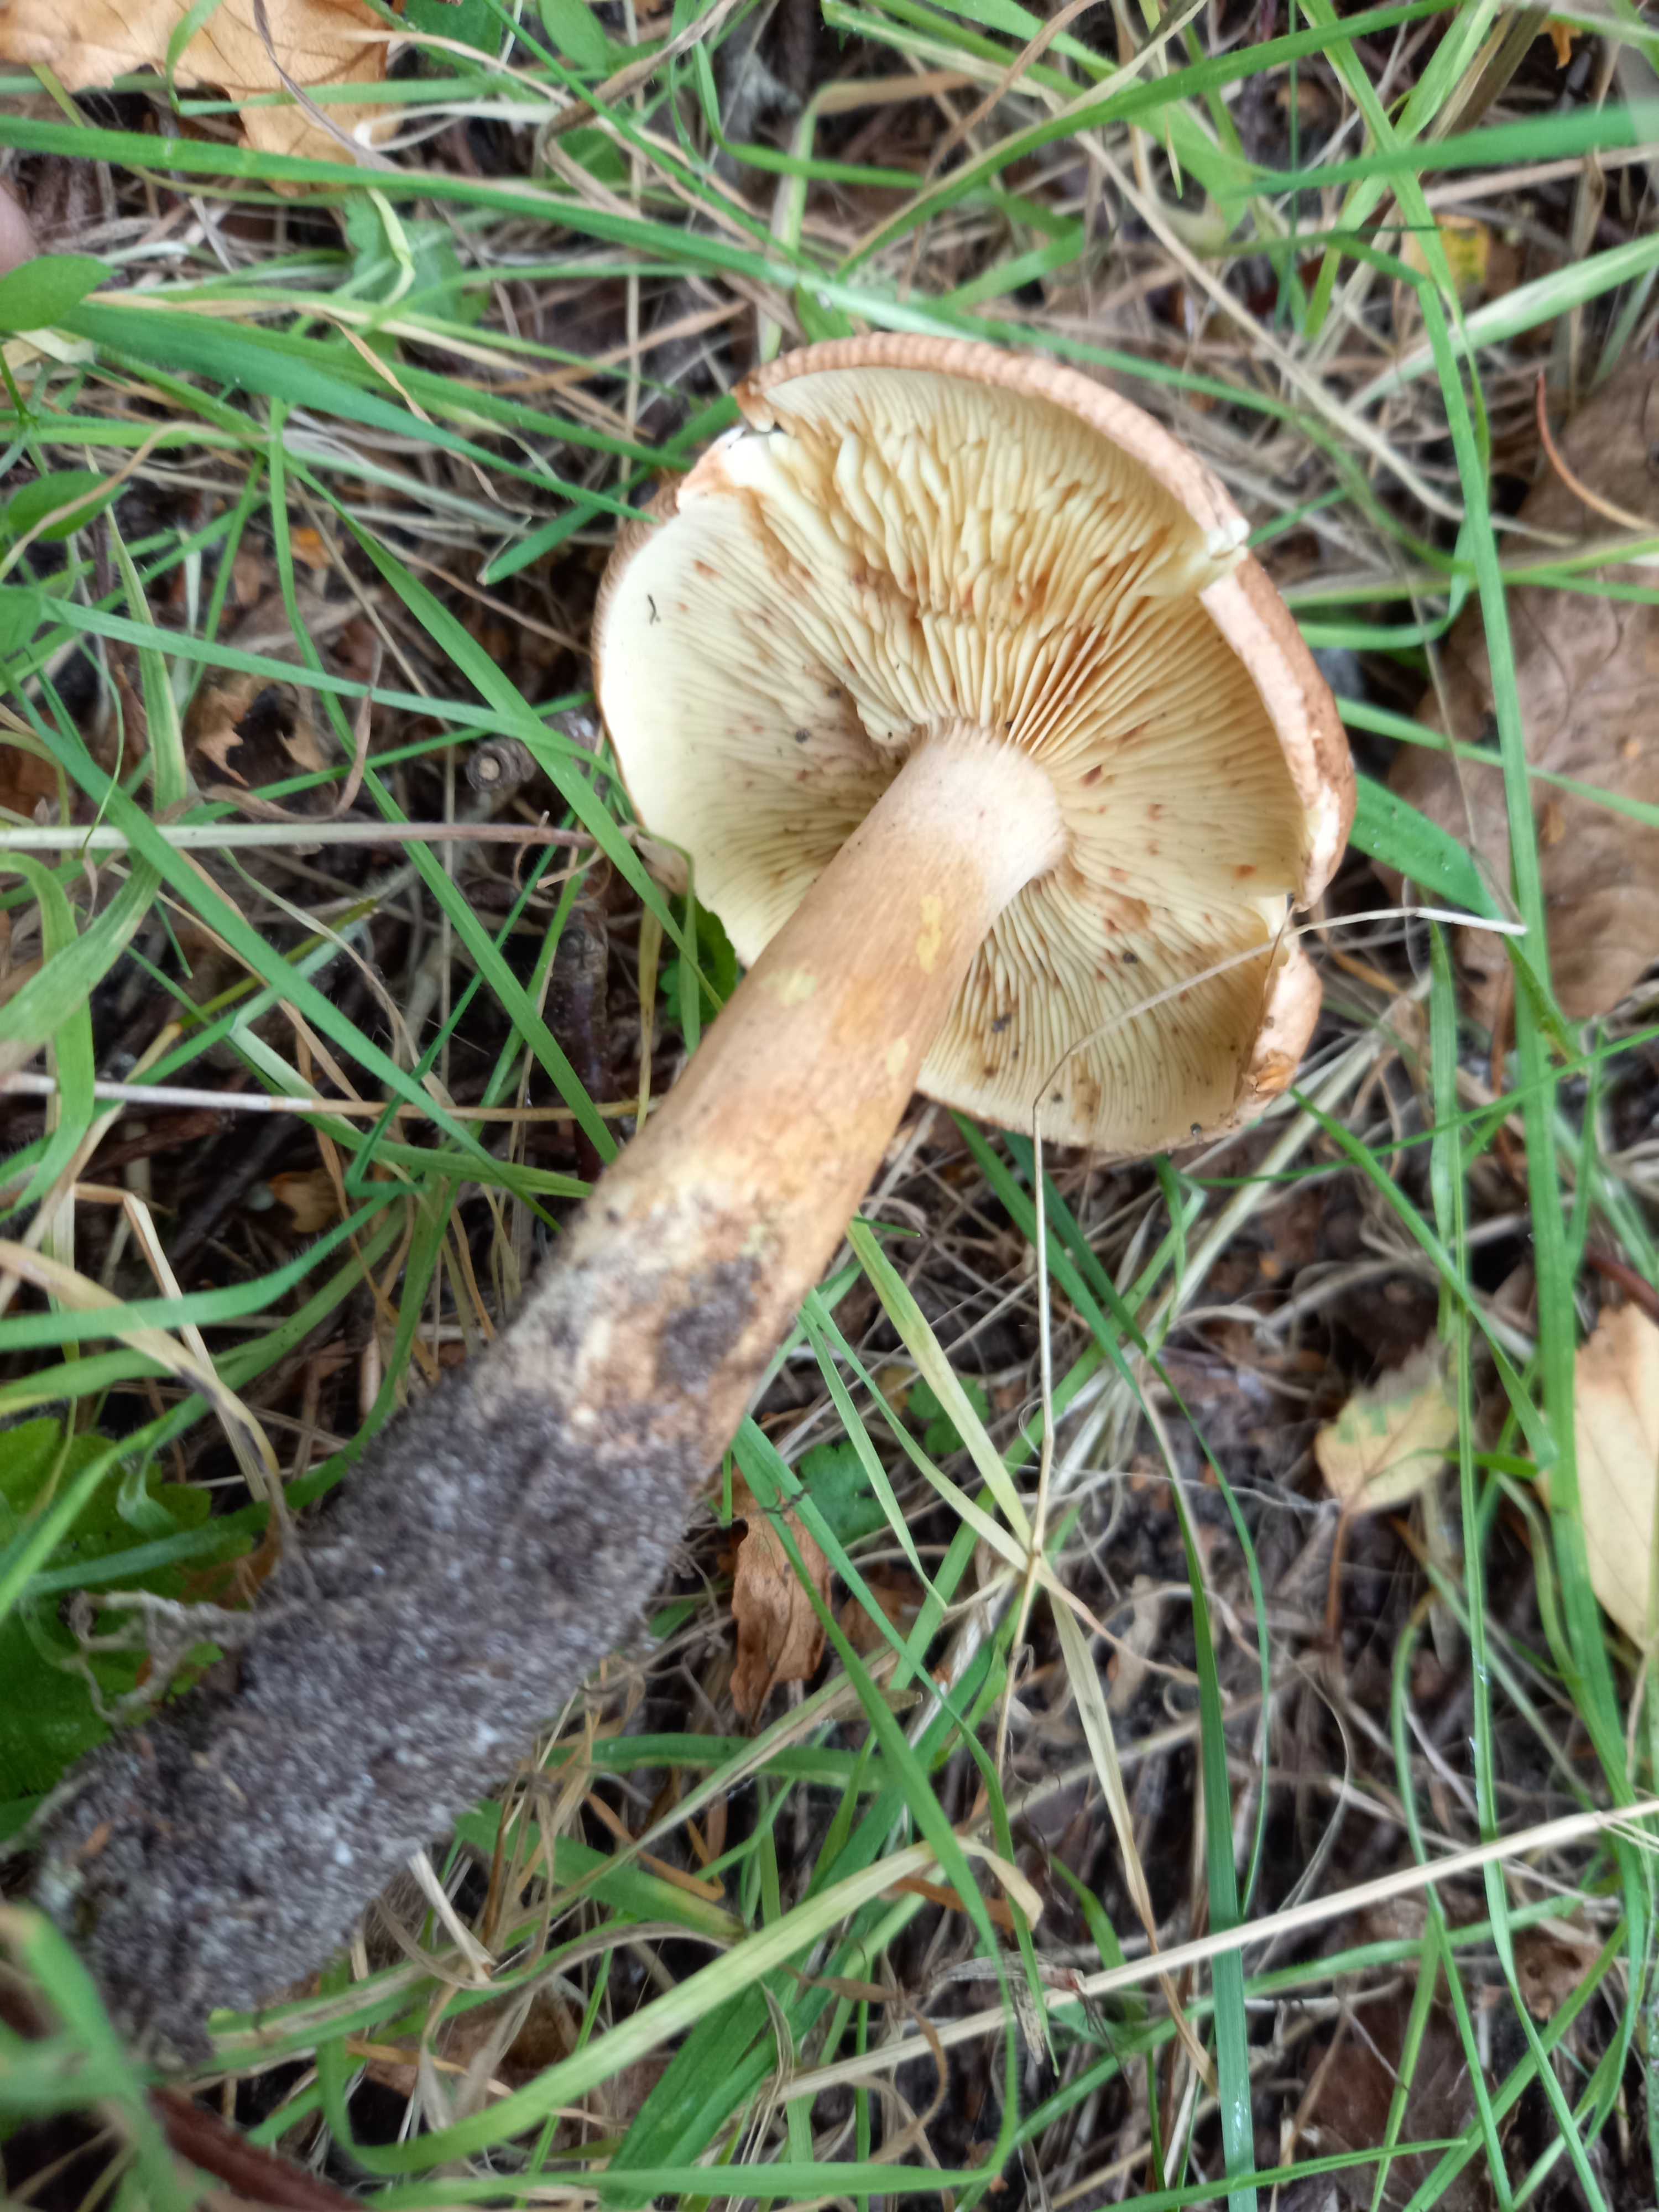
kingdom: Fungi
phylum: Basidiomycota
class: Agaricomycetes
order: Agaricales
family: Tricholomataceae
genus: Tricholoma
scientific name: Tricholoma fulvum
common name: birke-ridderhat
